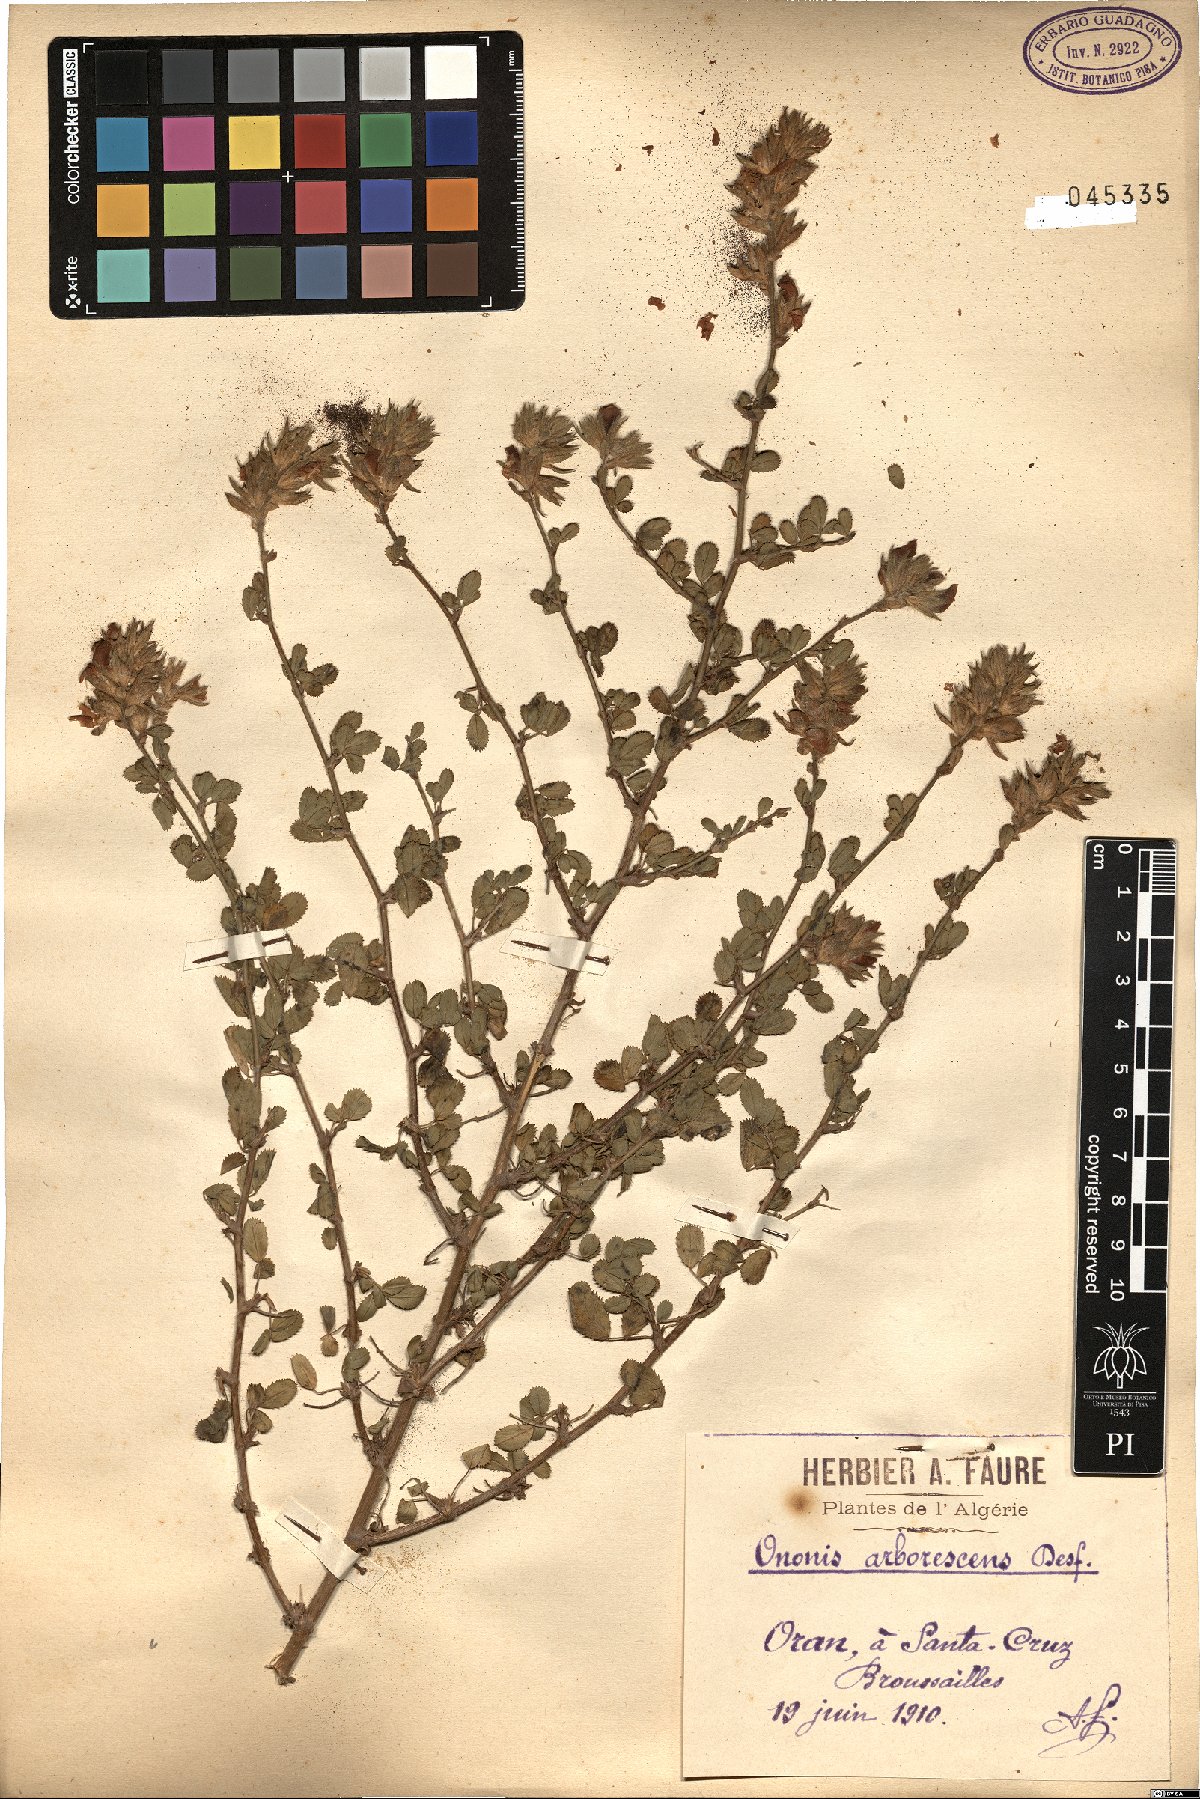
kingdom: Plantae
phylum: Tracheophyta
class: Magnoliopsida
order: Fabales
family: Fabaceae
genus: Ononis
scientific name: Ononis hispida
